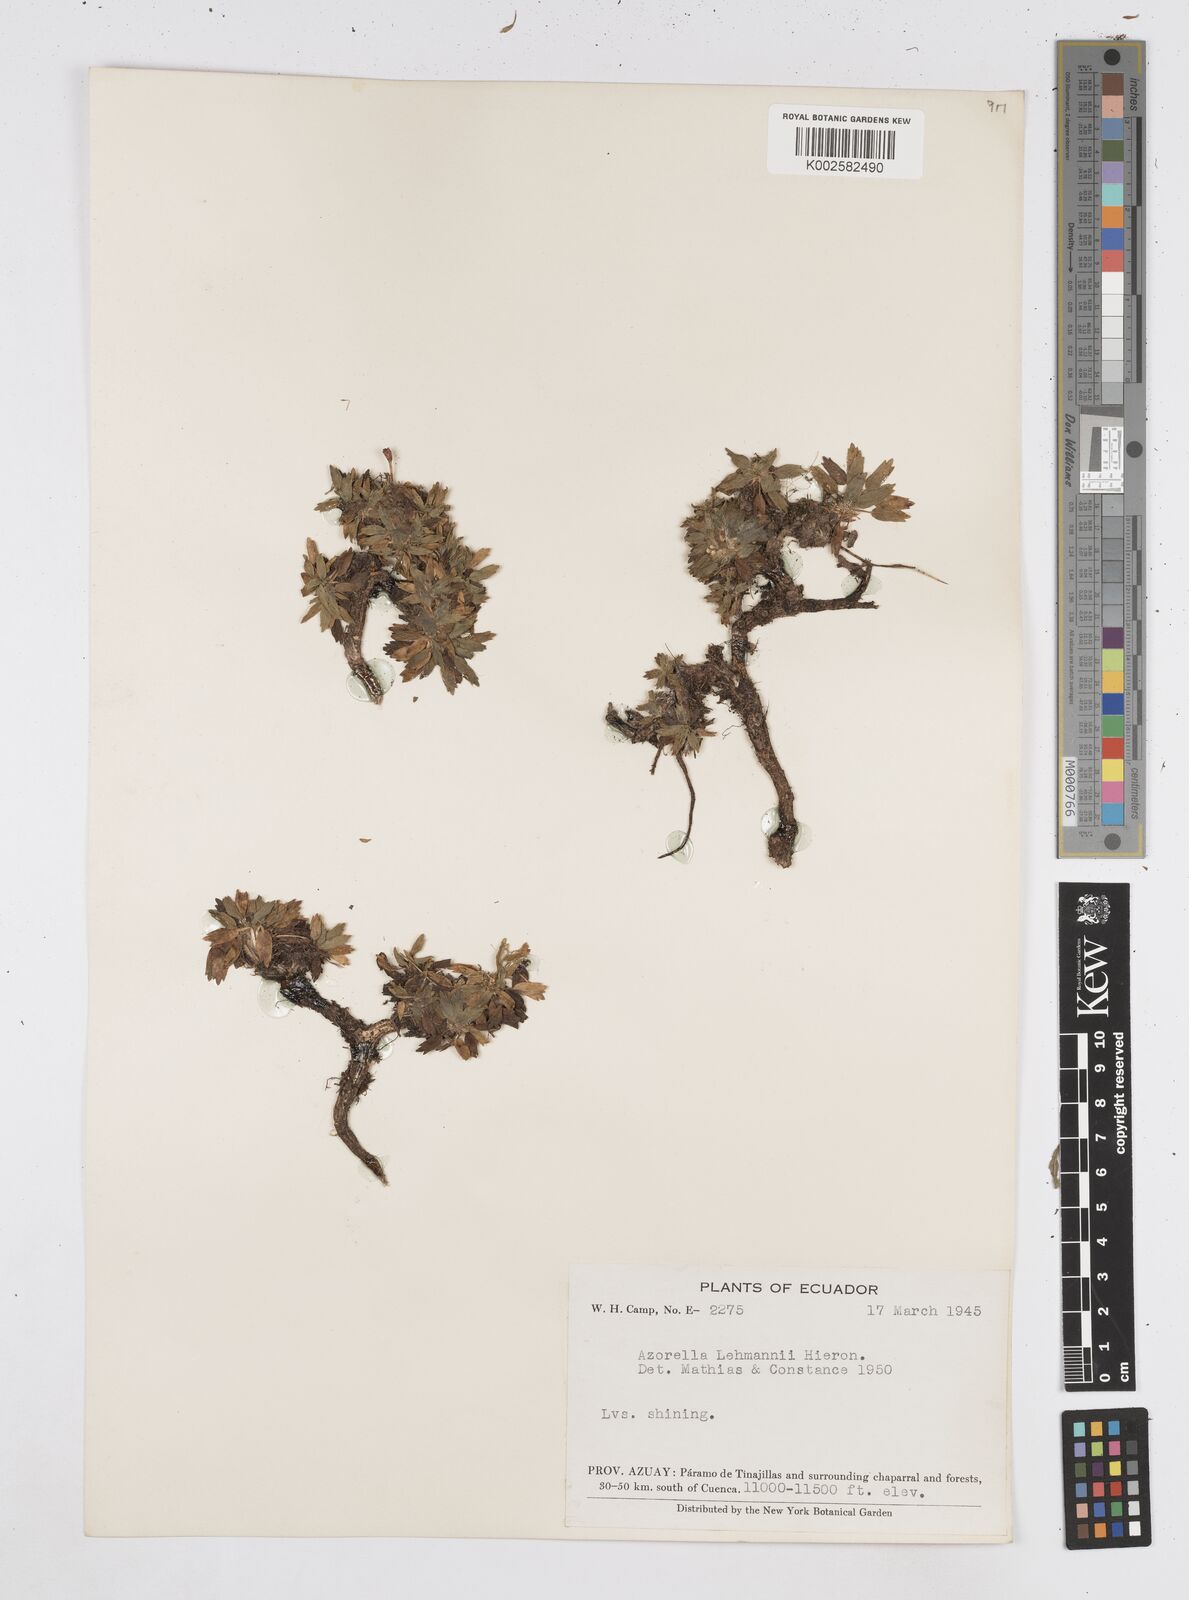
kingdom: Plantae
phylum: Tracheophyta
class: Magnoliopsida
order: Apiales
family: Apiaceae
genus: Azorella
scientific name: Azorella biloba
